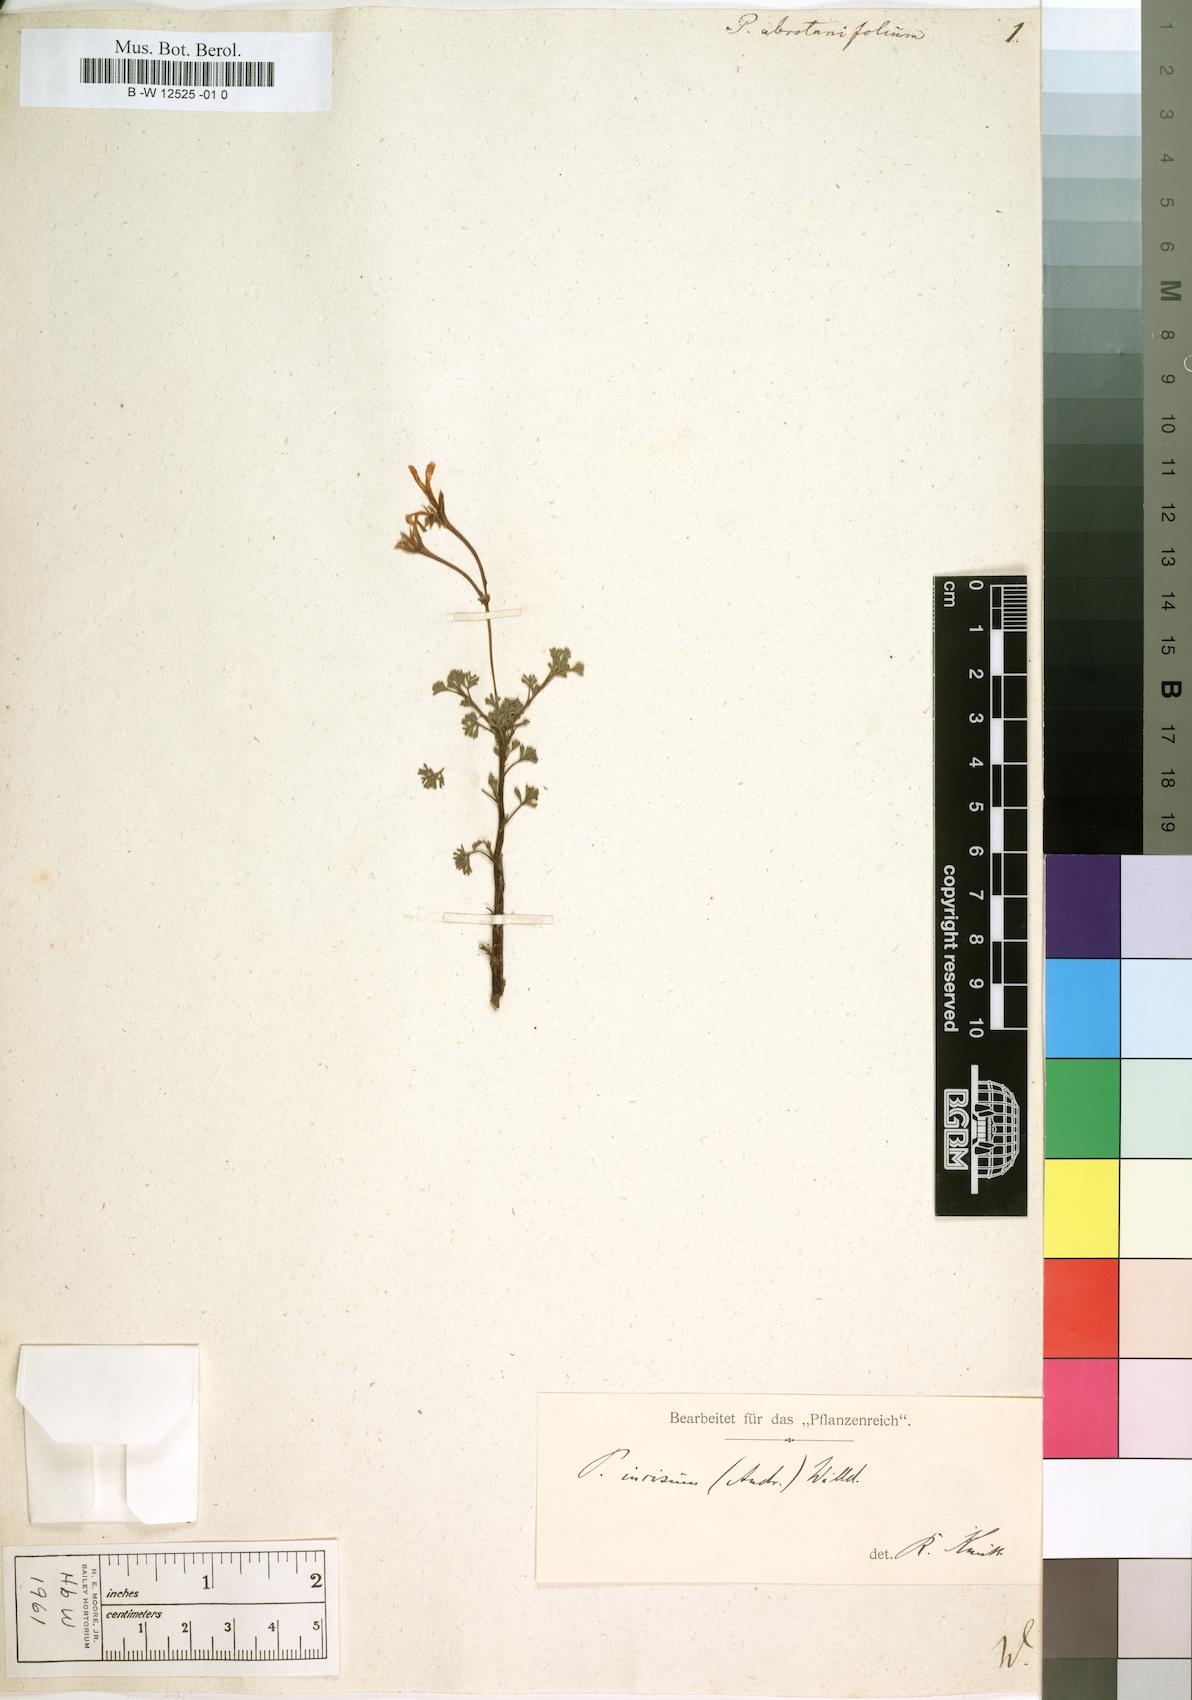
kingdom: Plantae
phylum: Tracheophyta
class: Magnoliopsida
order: Geraniales
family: Geraniaceae
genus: Pelargonium
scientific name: Pelargonium abrotanifolium
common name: Southernwood geranium
